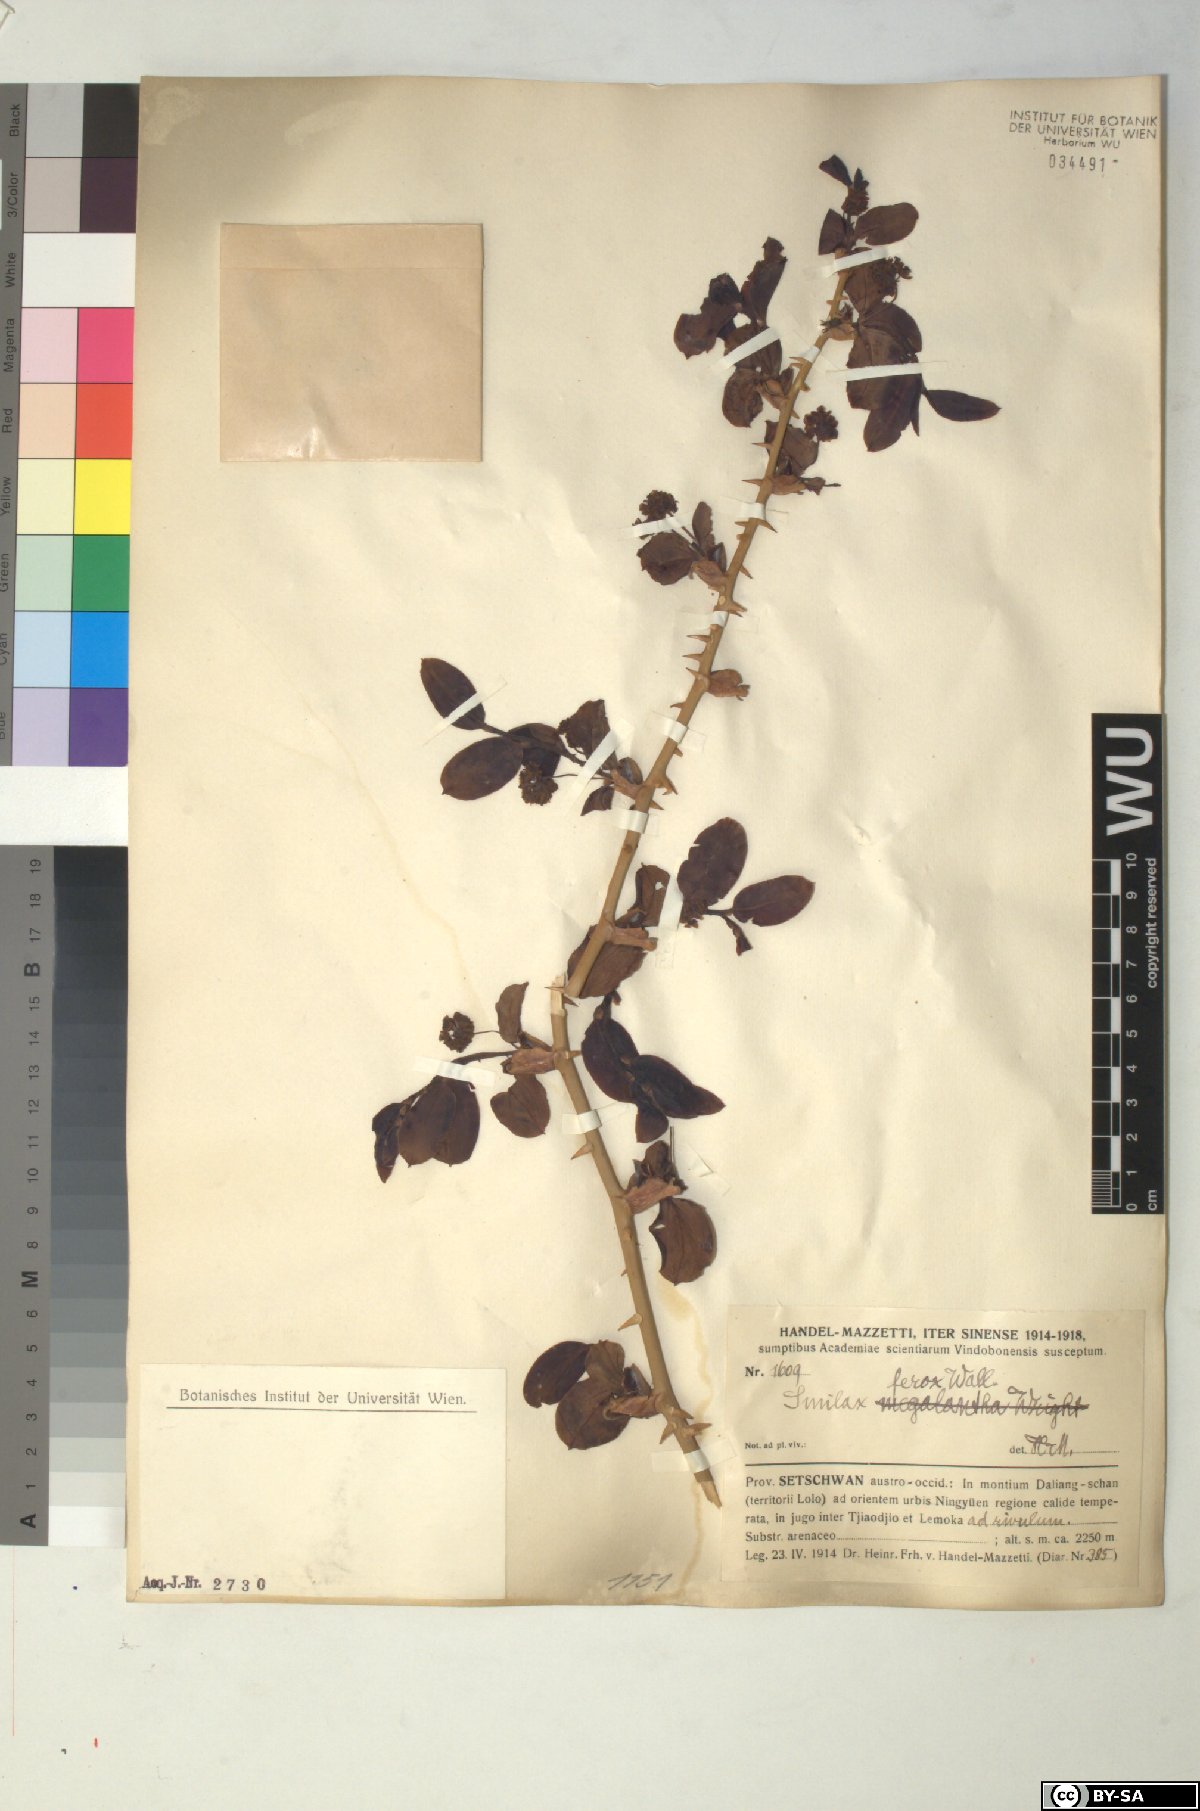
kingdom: Plantae
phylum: Tracheophyta
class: Liliopsida
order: Liliales
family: Smilacaceae
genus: Smilax
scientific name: Smilax ferox
